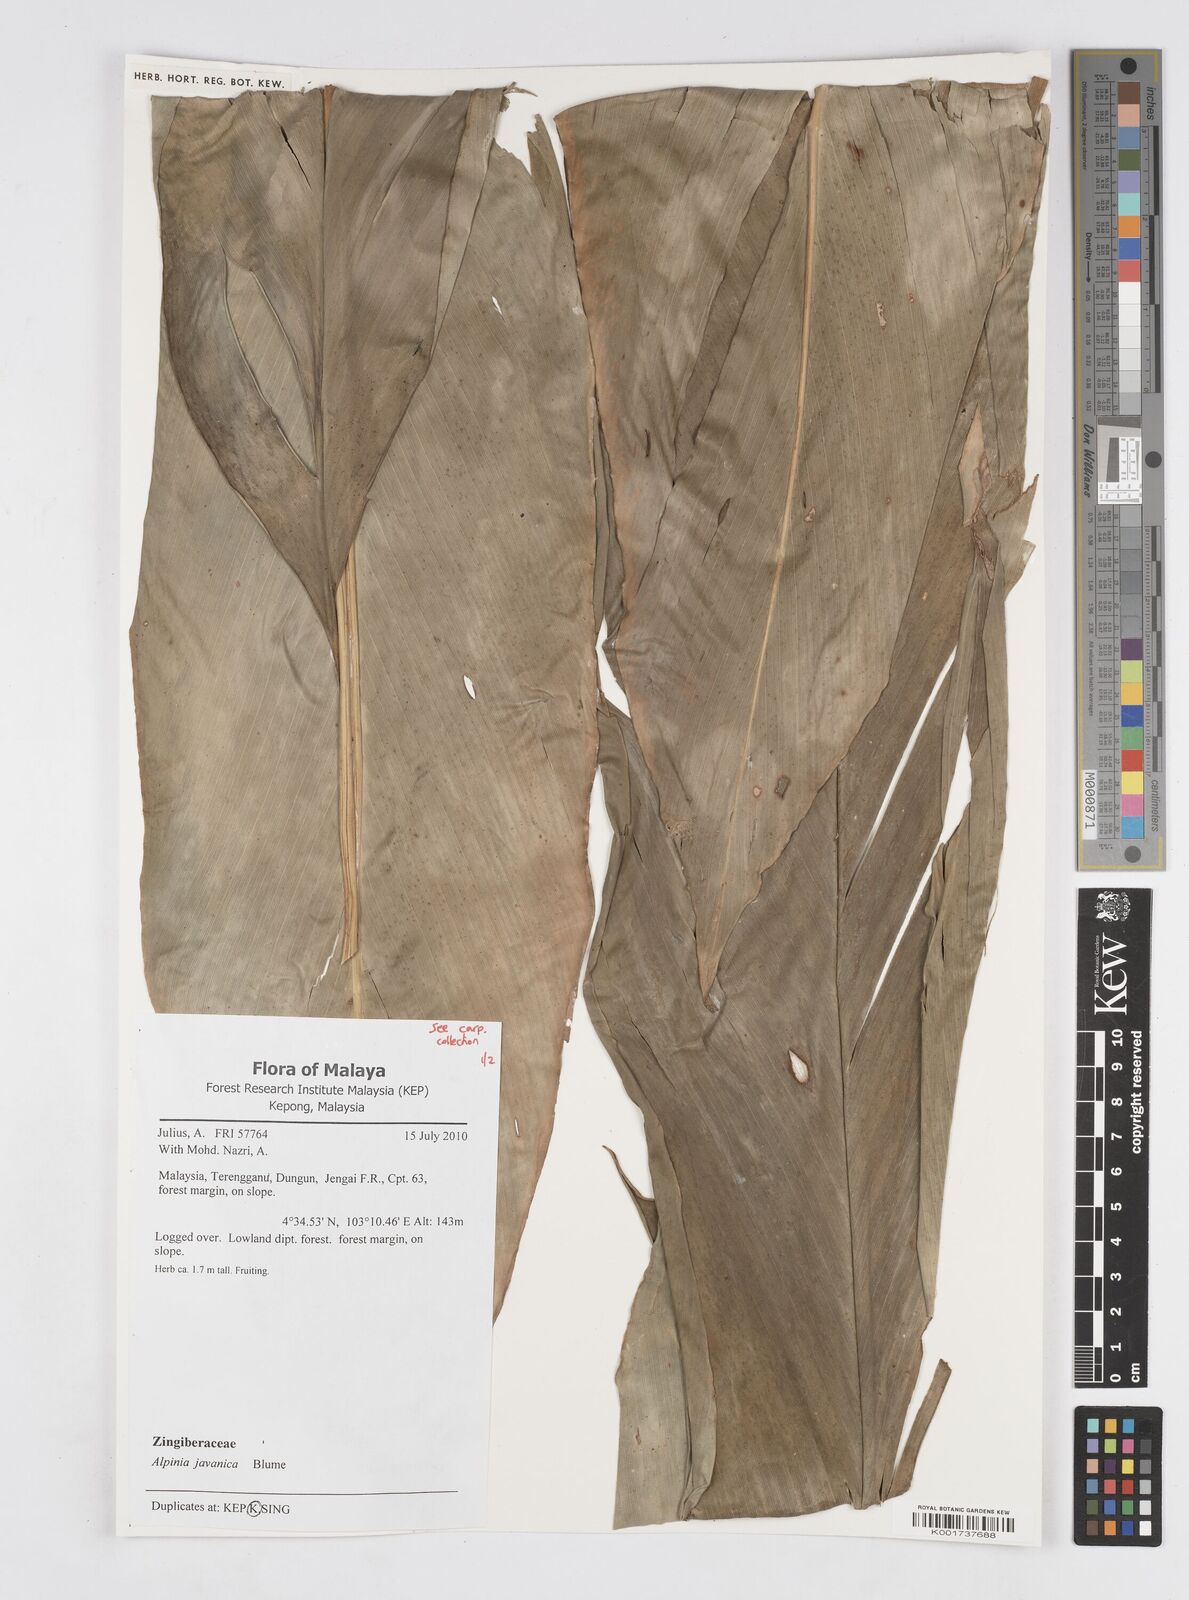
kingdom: Plantae
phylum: Tracheophyta
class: Liliopsida
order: Zingiberales
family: Zingiberaceae
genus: Alpinia
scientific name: Alpinia javanica
